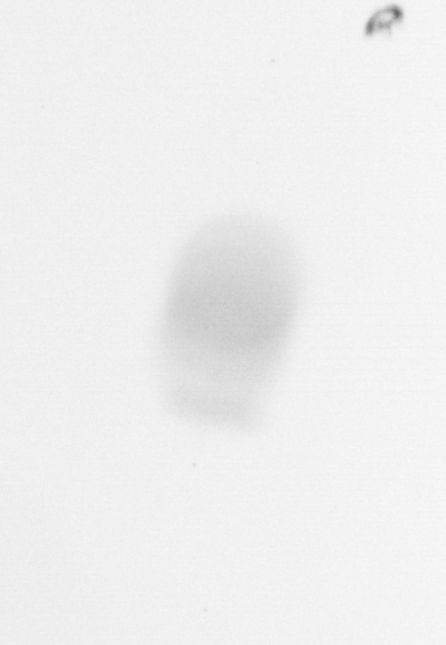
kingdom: Chromista
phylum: Ochrophyta
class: Bacillariophyceae
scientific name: Bacillariophyceae
